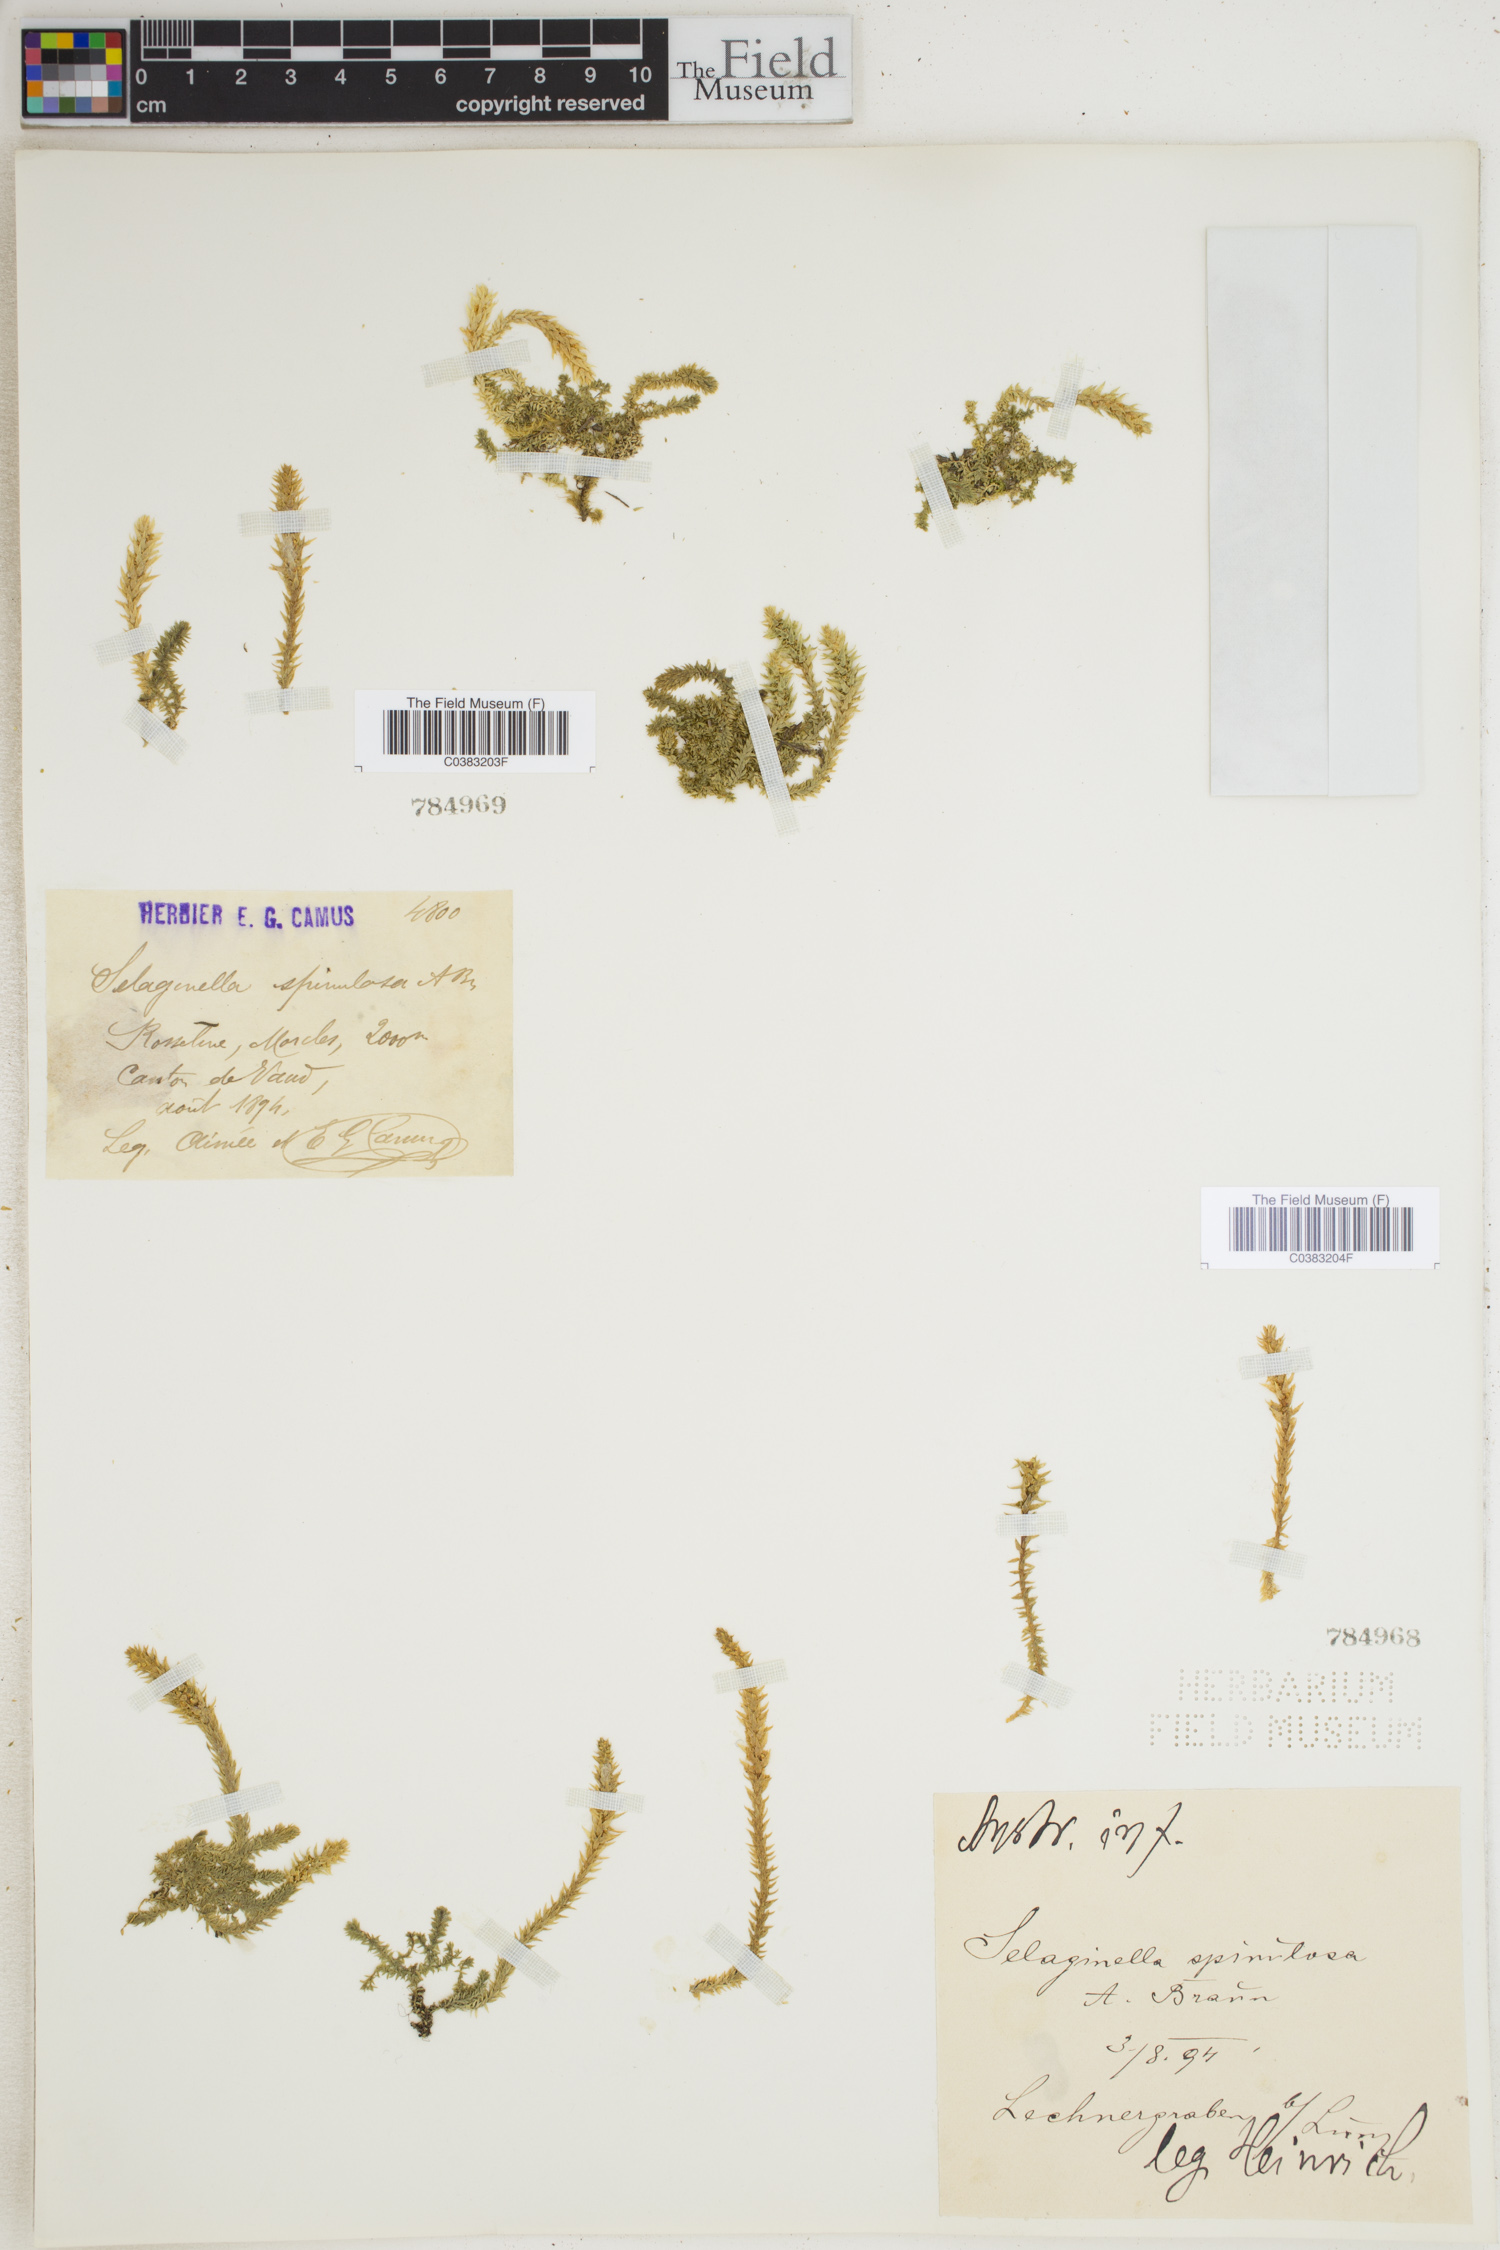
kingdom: Plantae
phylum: Tracheophyta
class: Lycopodiopsida
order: Selaginellales
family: Selaginellaceae
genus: Selaginella
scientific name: Selaginella selaginoides
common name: Prickly mountain-moss
